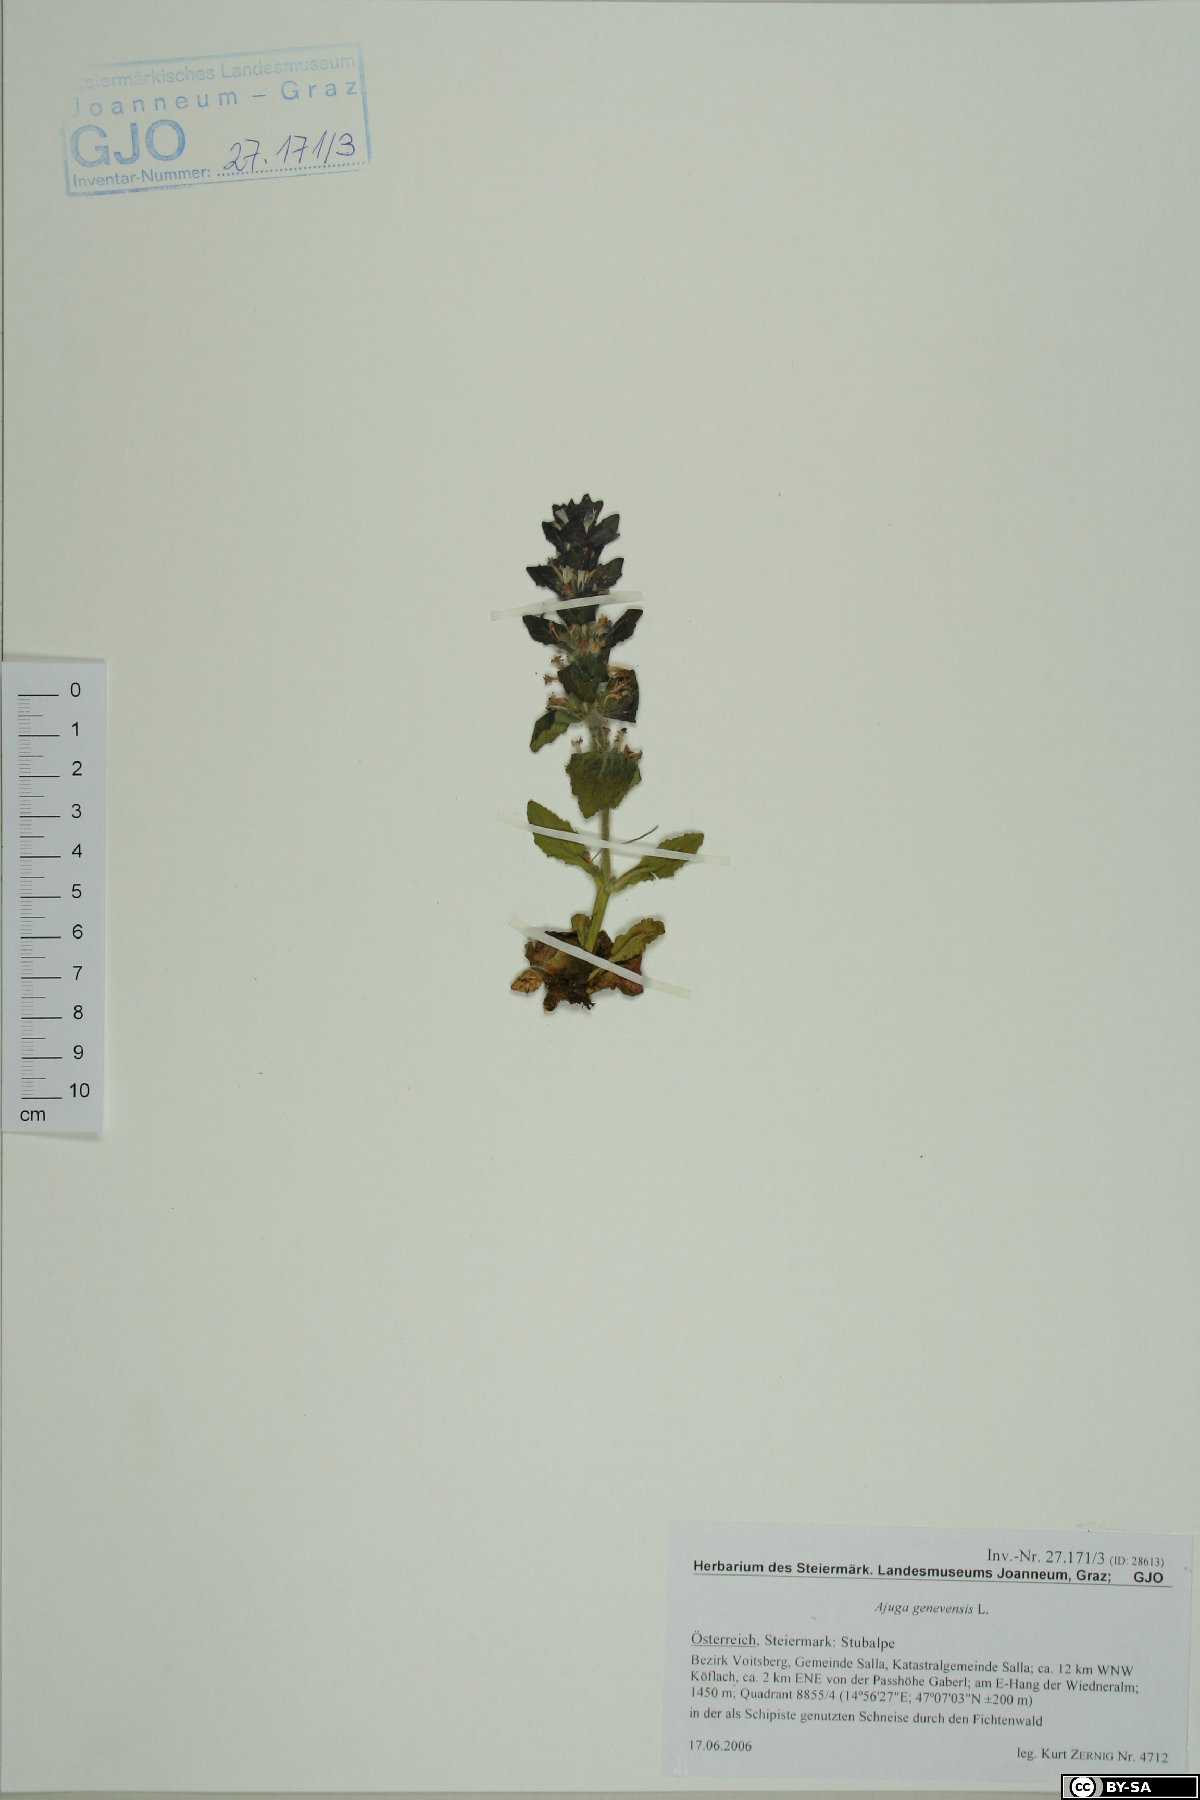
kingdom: Plantae
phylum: Tracheophyta
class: Magnoliopsida
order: Lamiales
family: Lamiaceae
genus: Ajuga
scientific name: Ajuga genevensis
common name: Blue bugle
